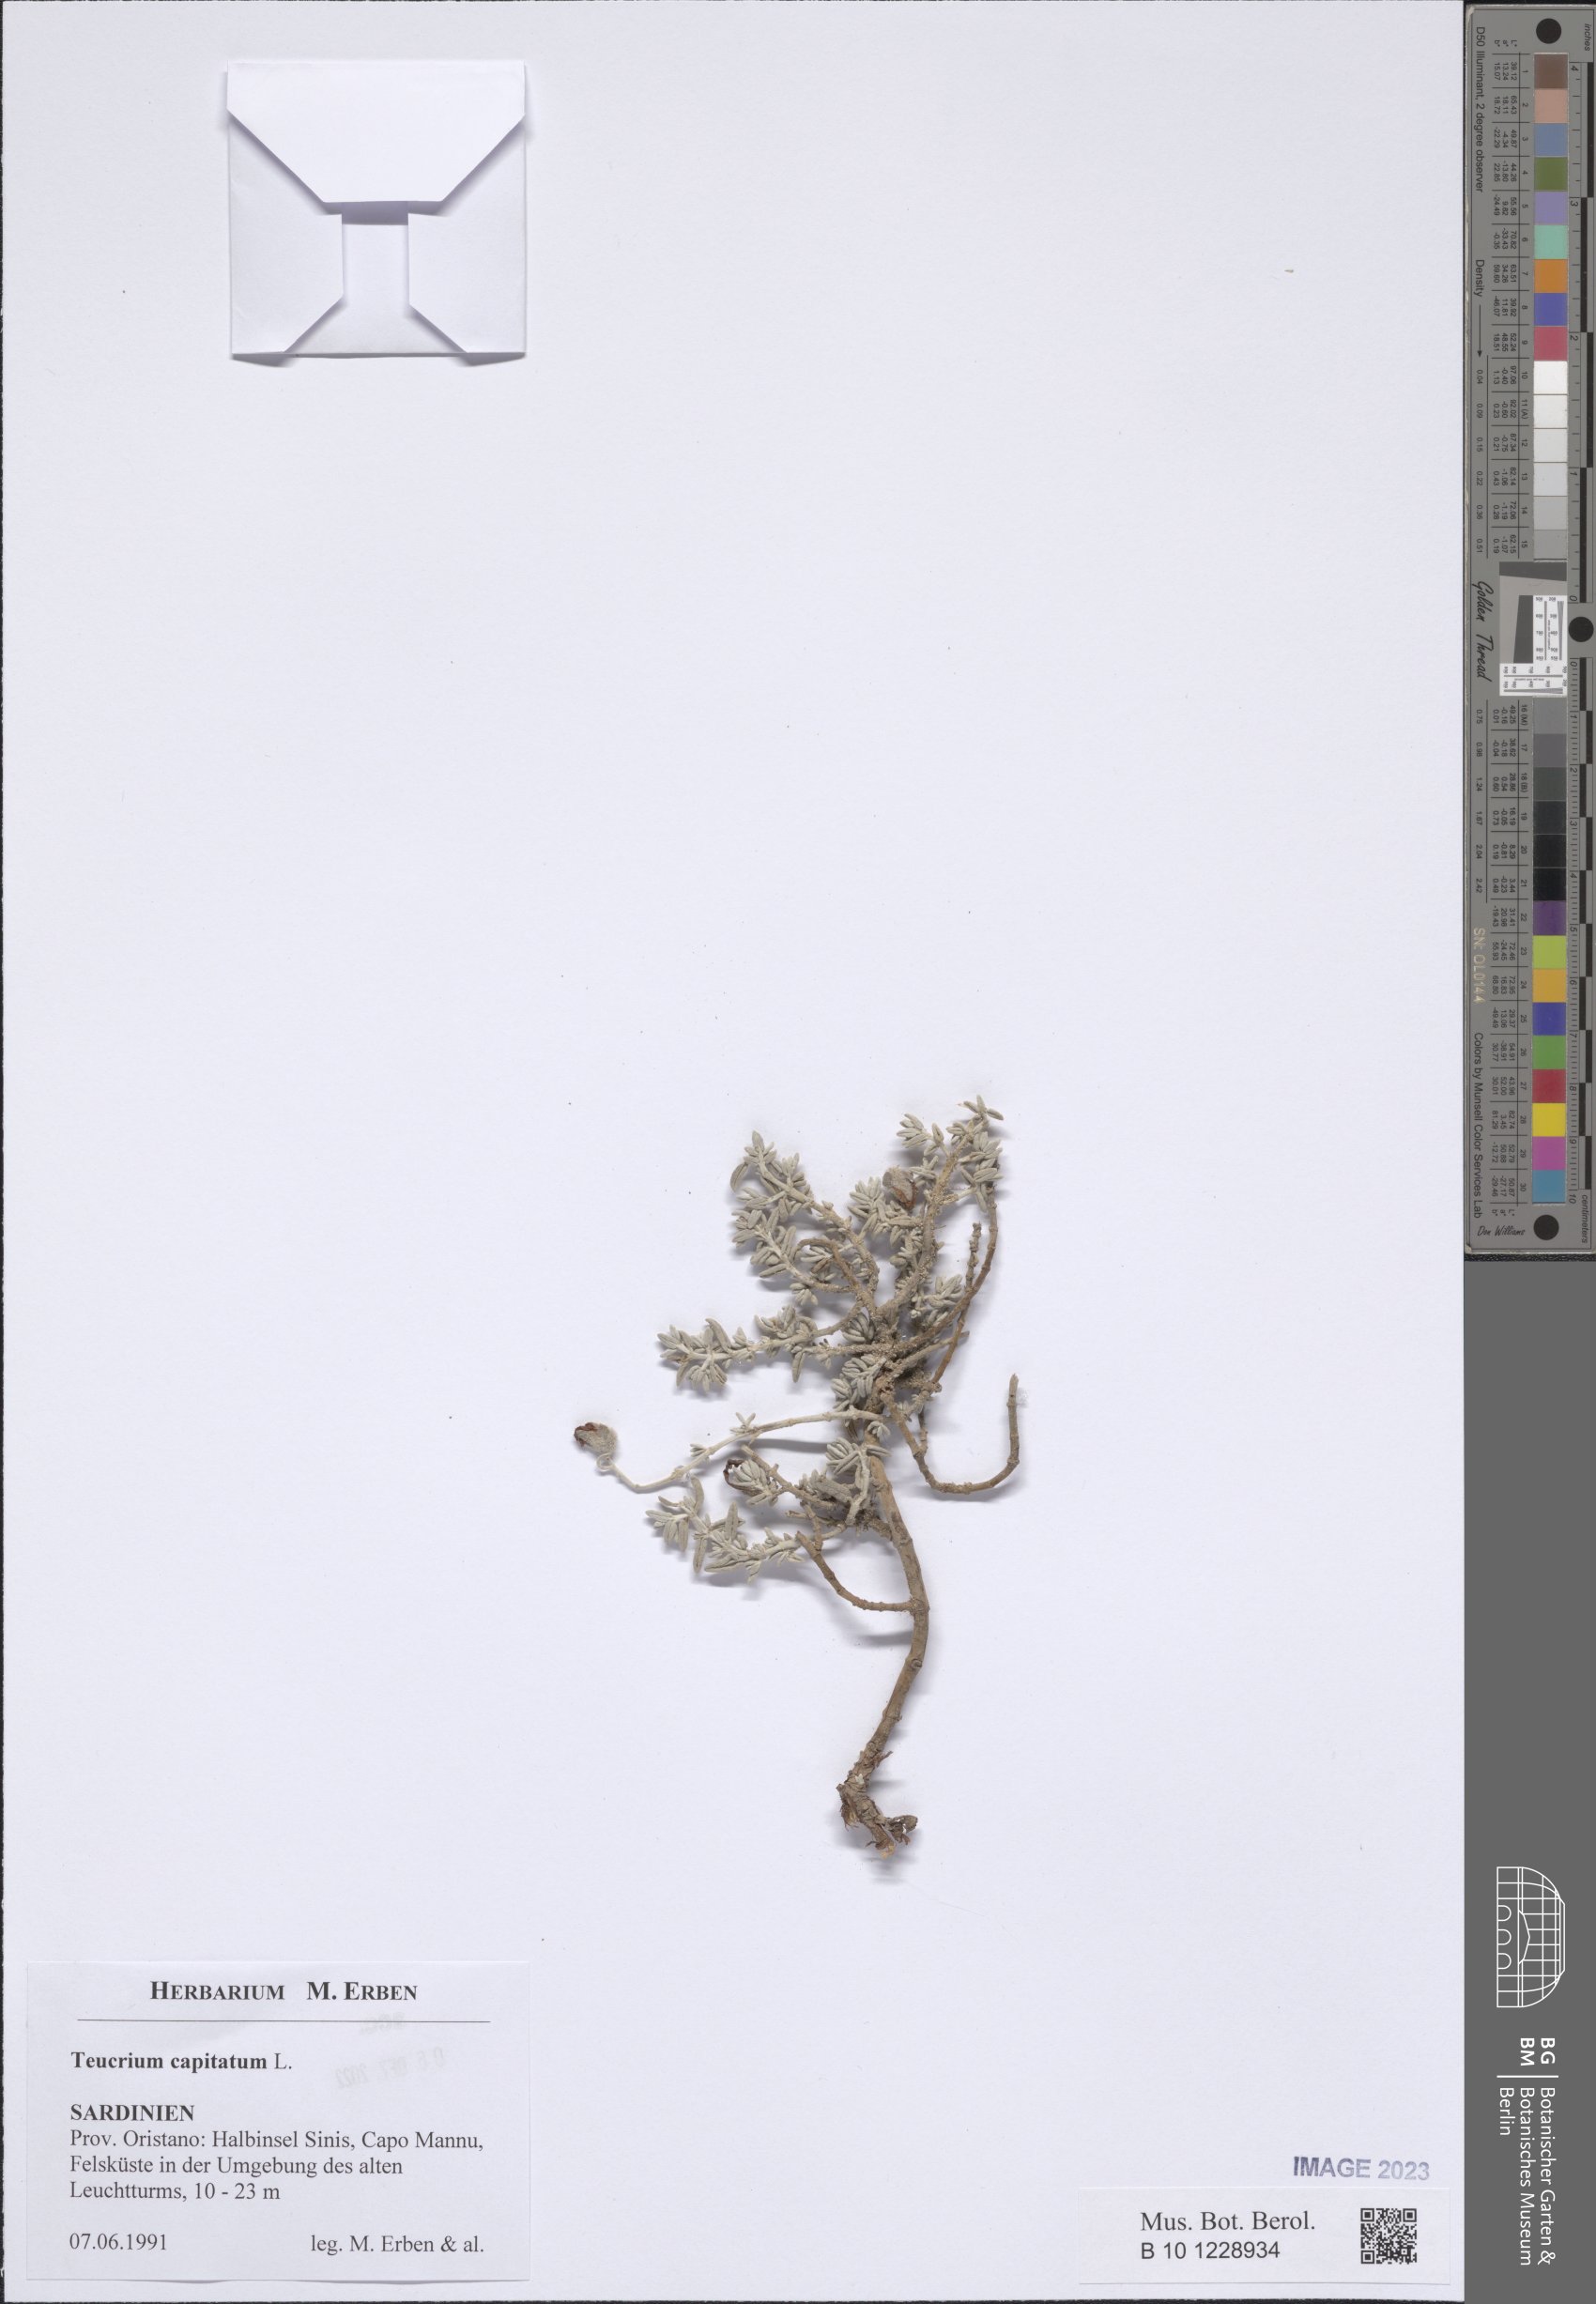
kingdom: Plantae
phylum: Tracheophyta
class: Magnoliopsida
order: Lamiales
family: Lamiaceae
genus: Teucrium
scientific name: Teucrium capitatum
